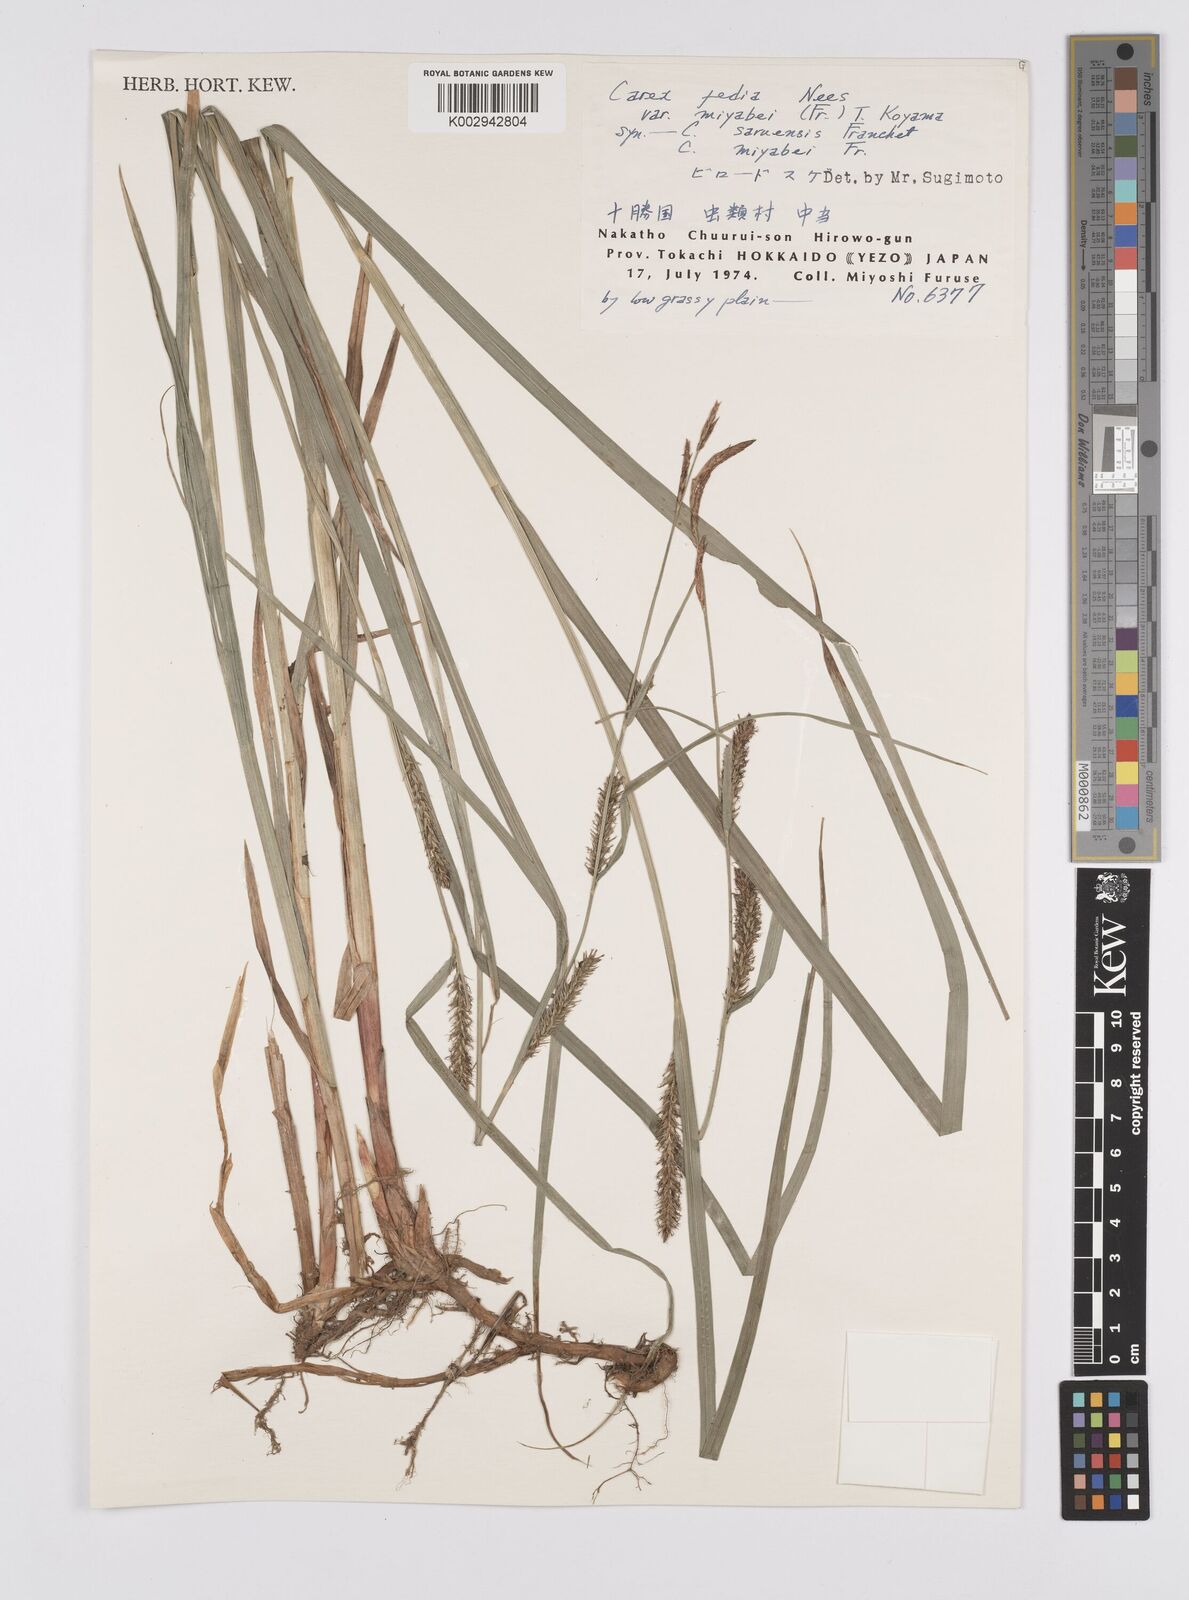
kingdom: Plantae
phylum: Tracheophyta
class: Liliopsida
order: Poales
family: Cyperaceae
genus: Carex
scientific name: Carex miyabei
